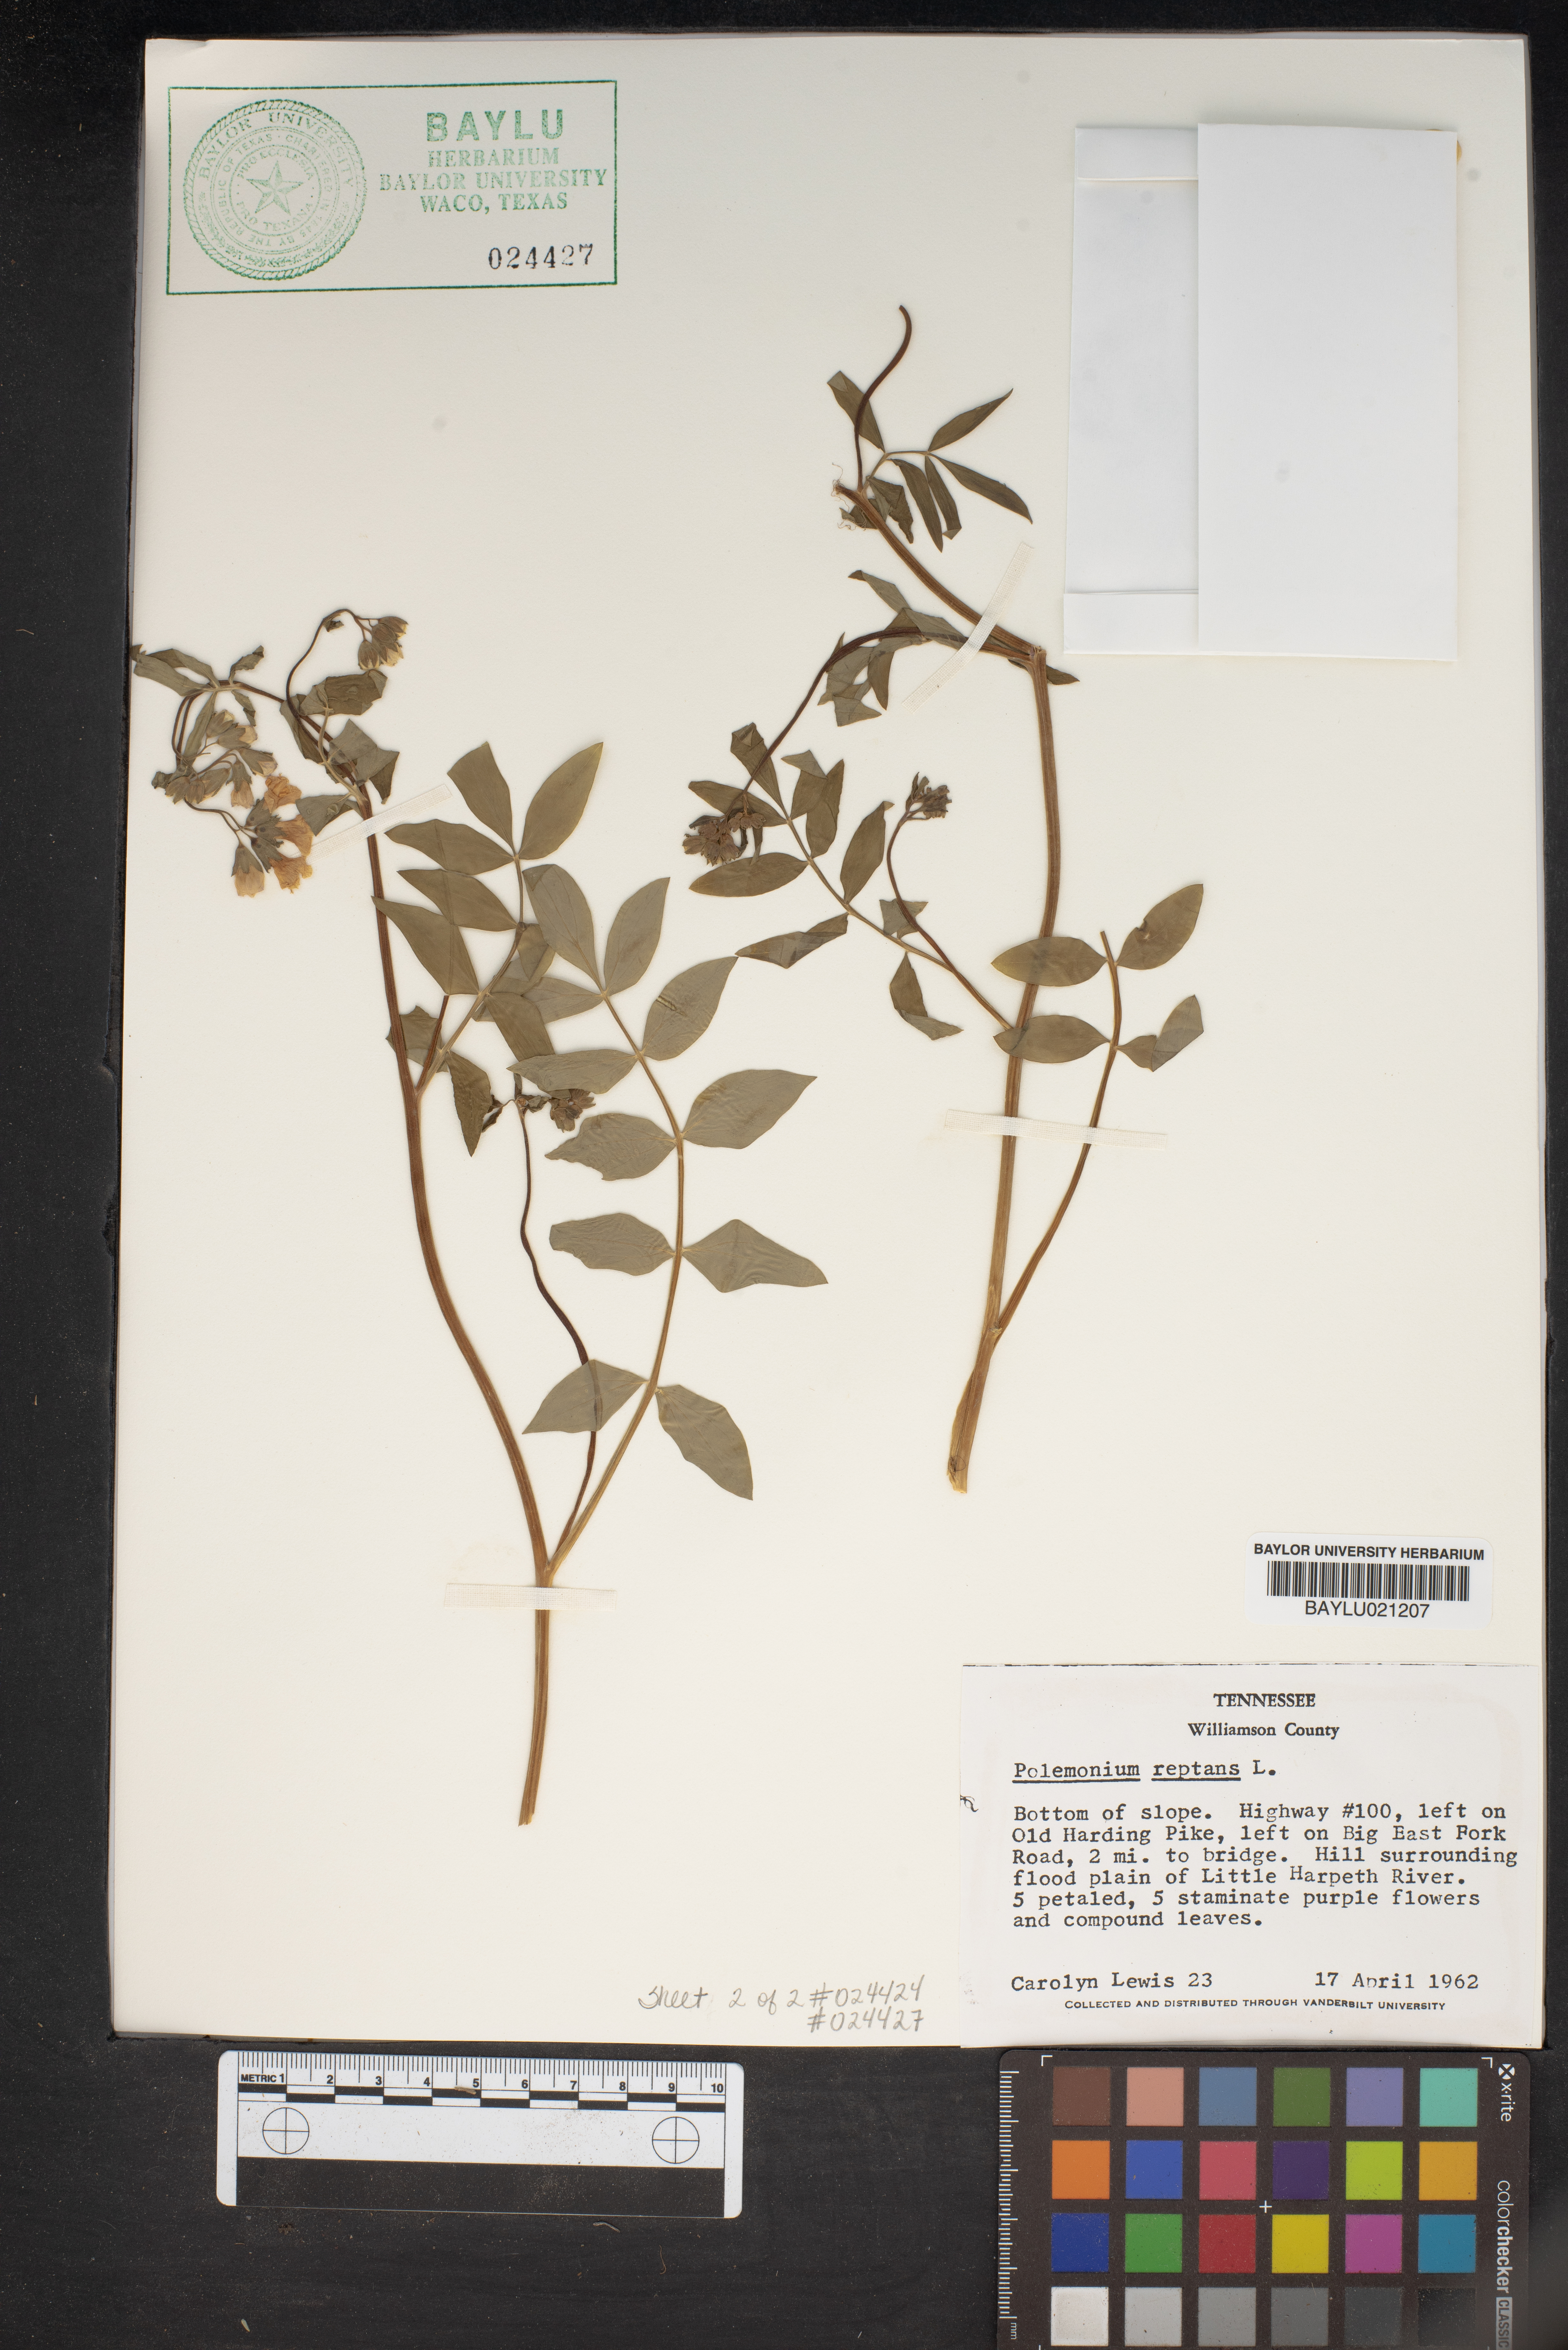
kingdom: Plantae
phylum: Tracheophyta
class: Magnoliopsida
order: Ericales
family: Polemoniaceae
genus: Polemonium
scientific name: Polemonium reptans
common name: Creeping jacob's-ladder
